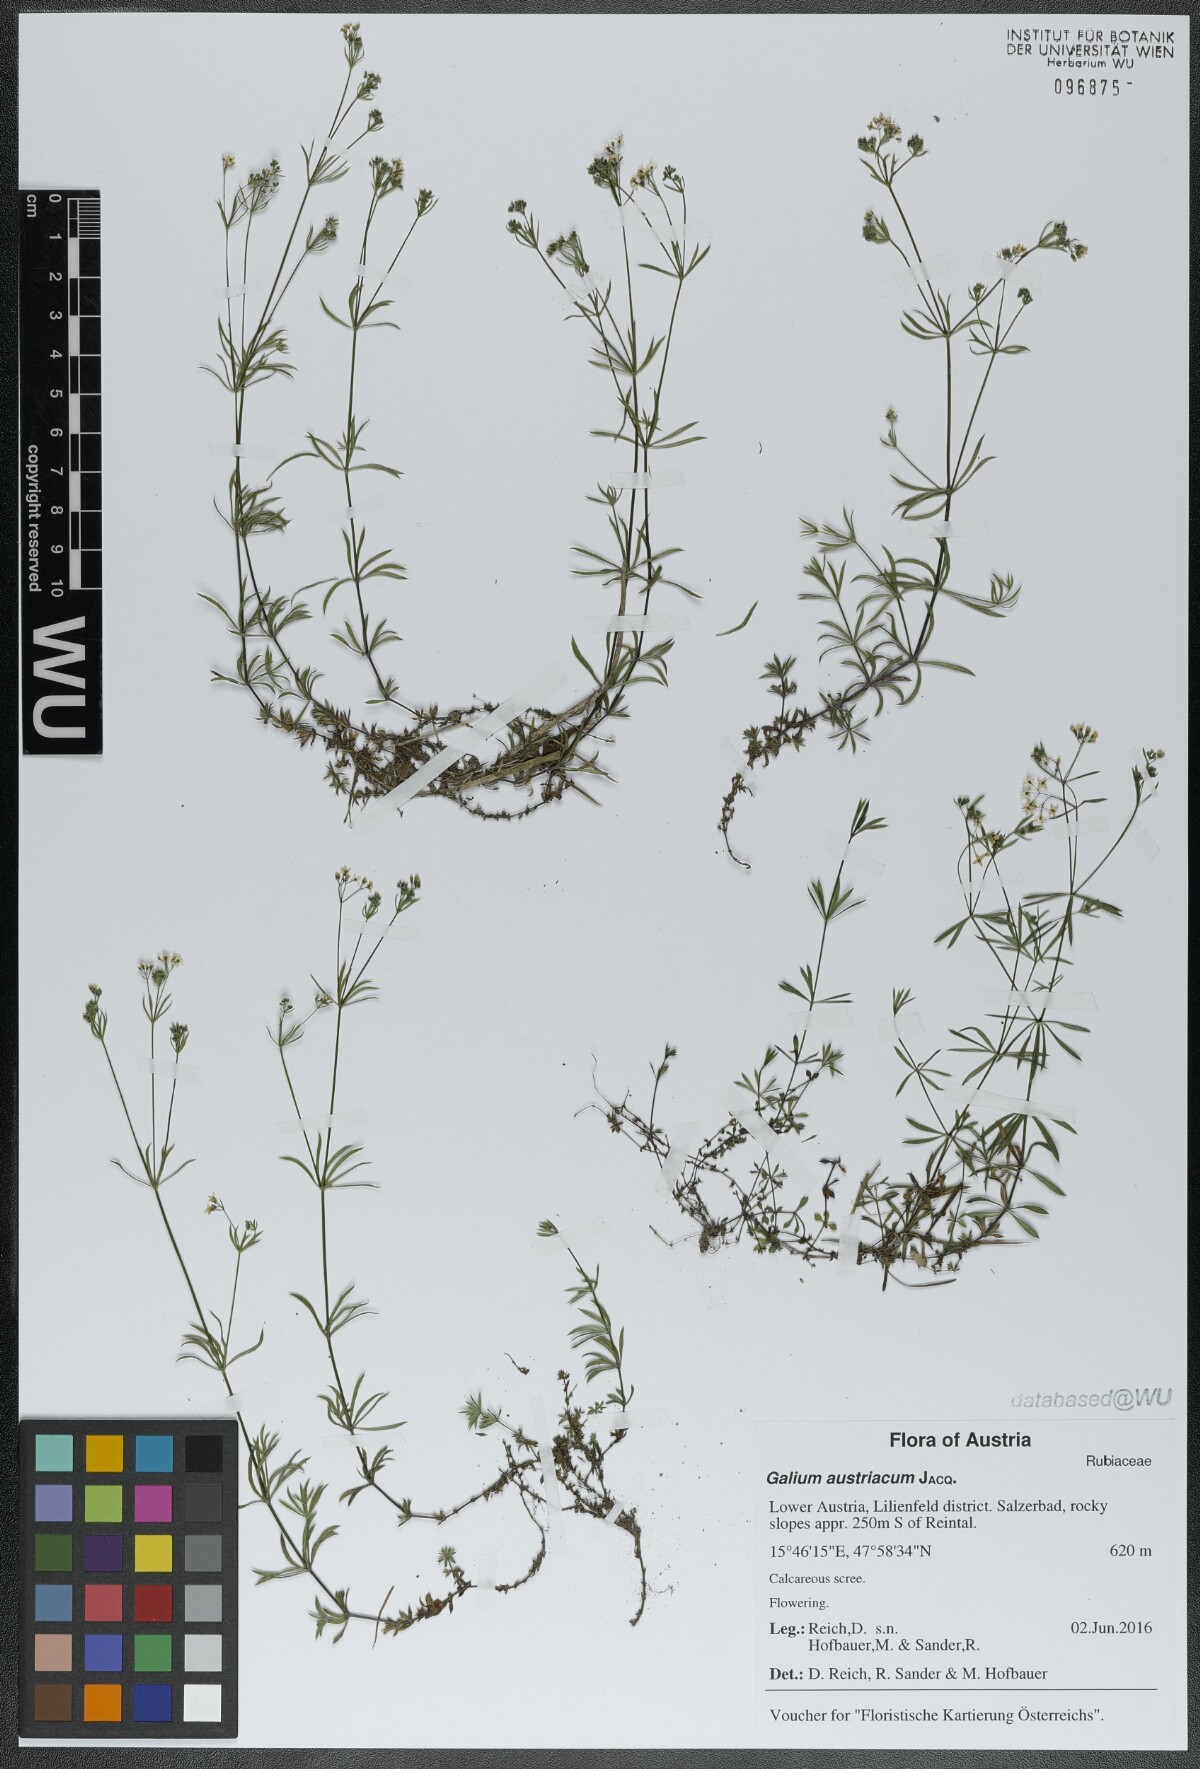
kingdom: Plantae
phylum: Tracheophyta
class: Magnoliopsida
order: Gentianales
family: Rubiaceae
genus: Galium
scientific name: Galium austriacum
